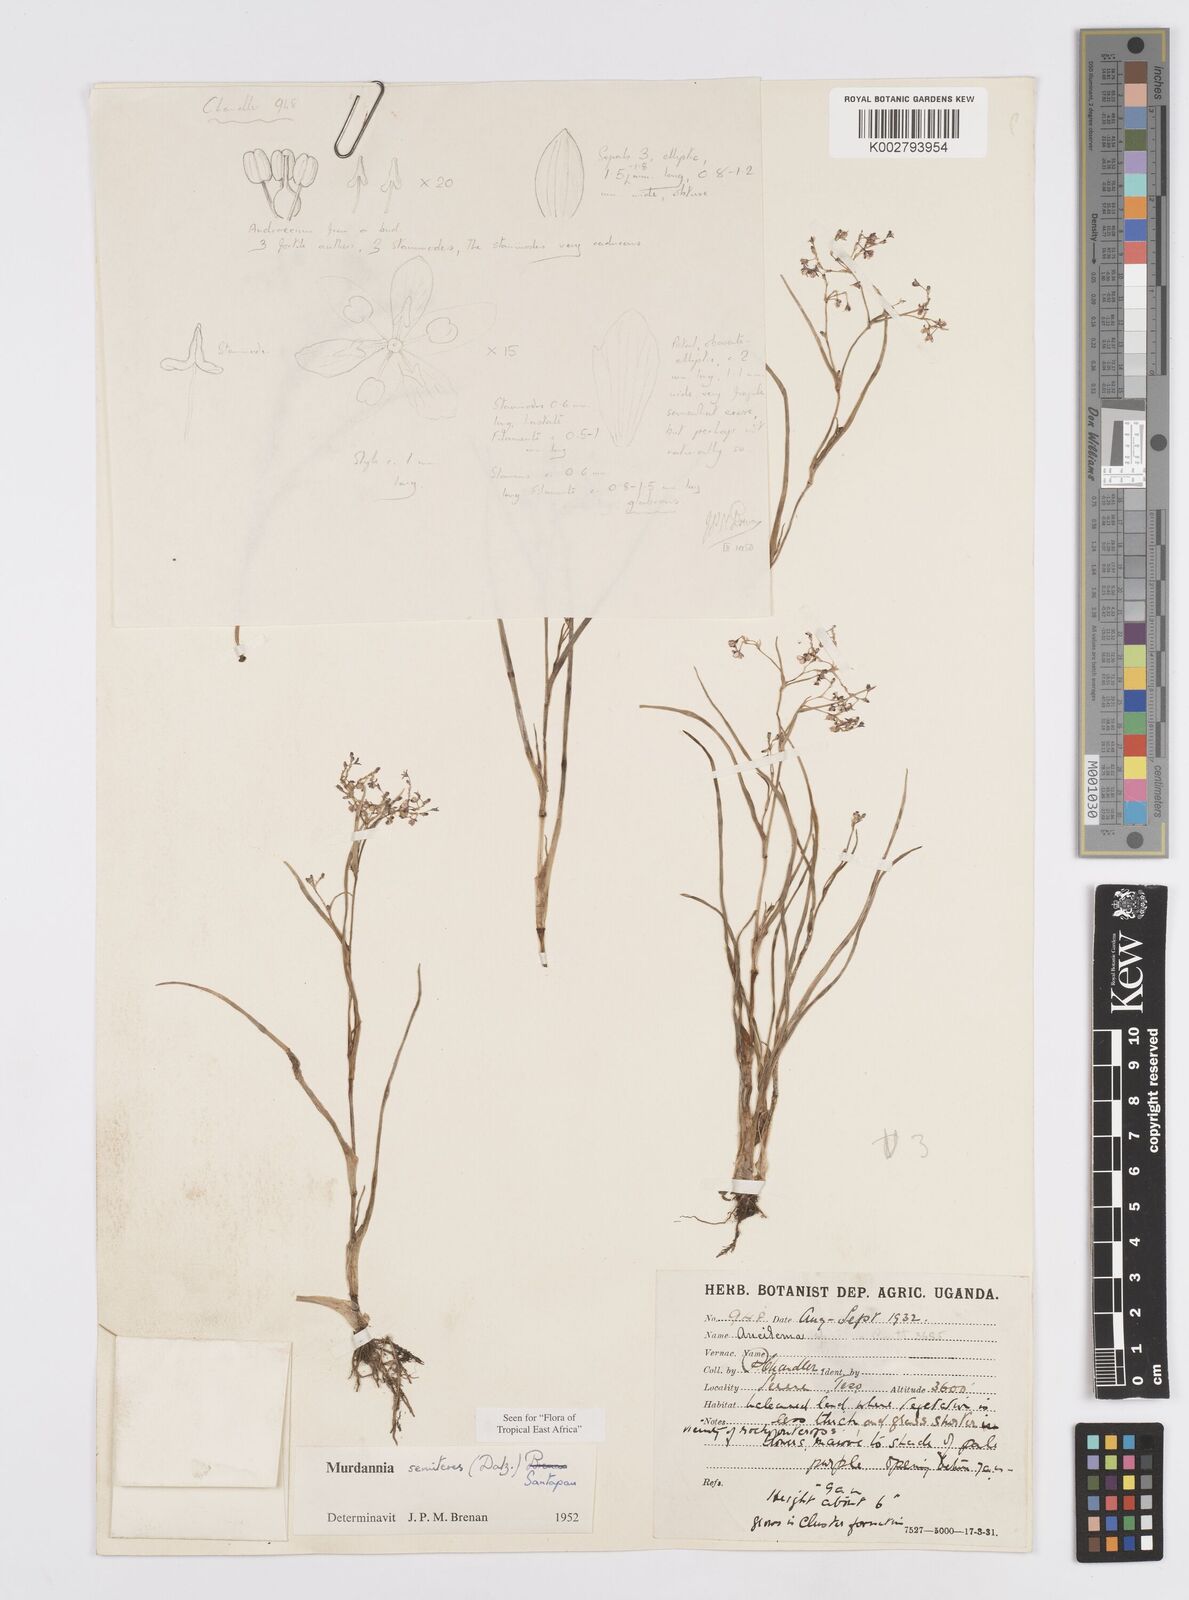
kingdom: Plantae
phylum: Tracheophyta
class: Liliopsida
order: Commelinales
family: Commelinaceae
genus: Murdannia
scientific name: Murdannia semiteres
